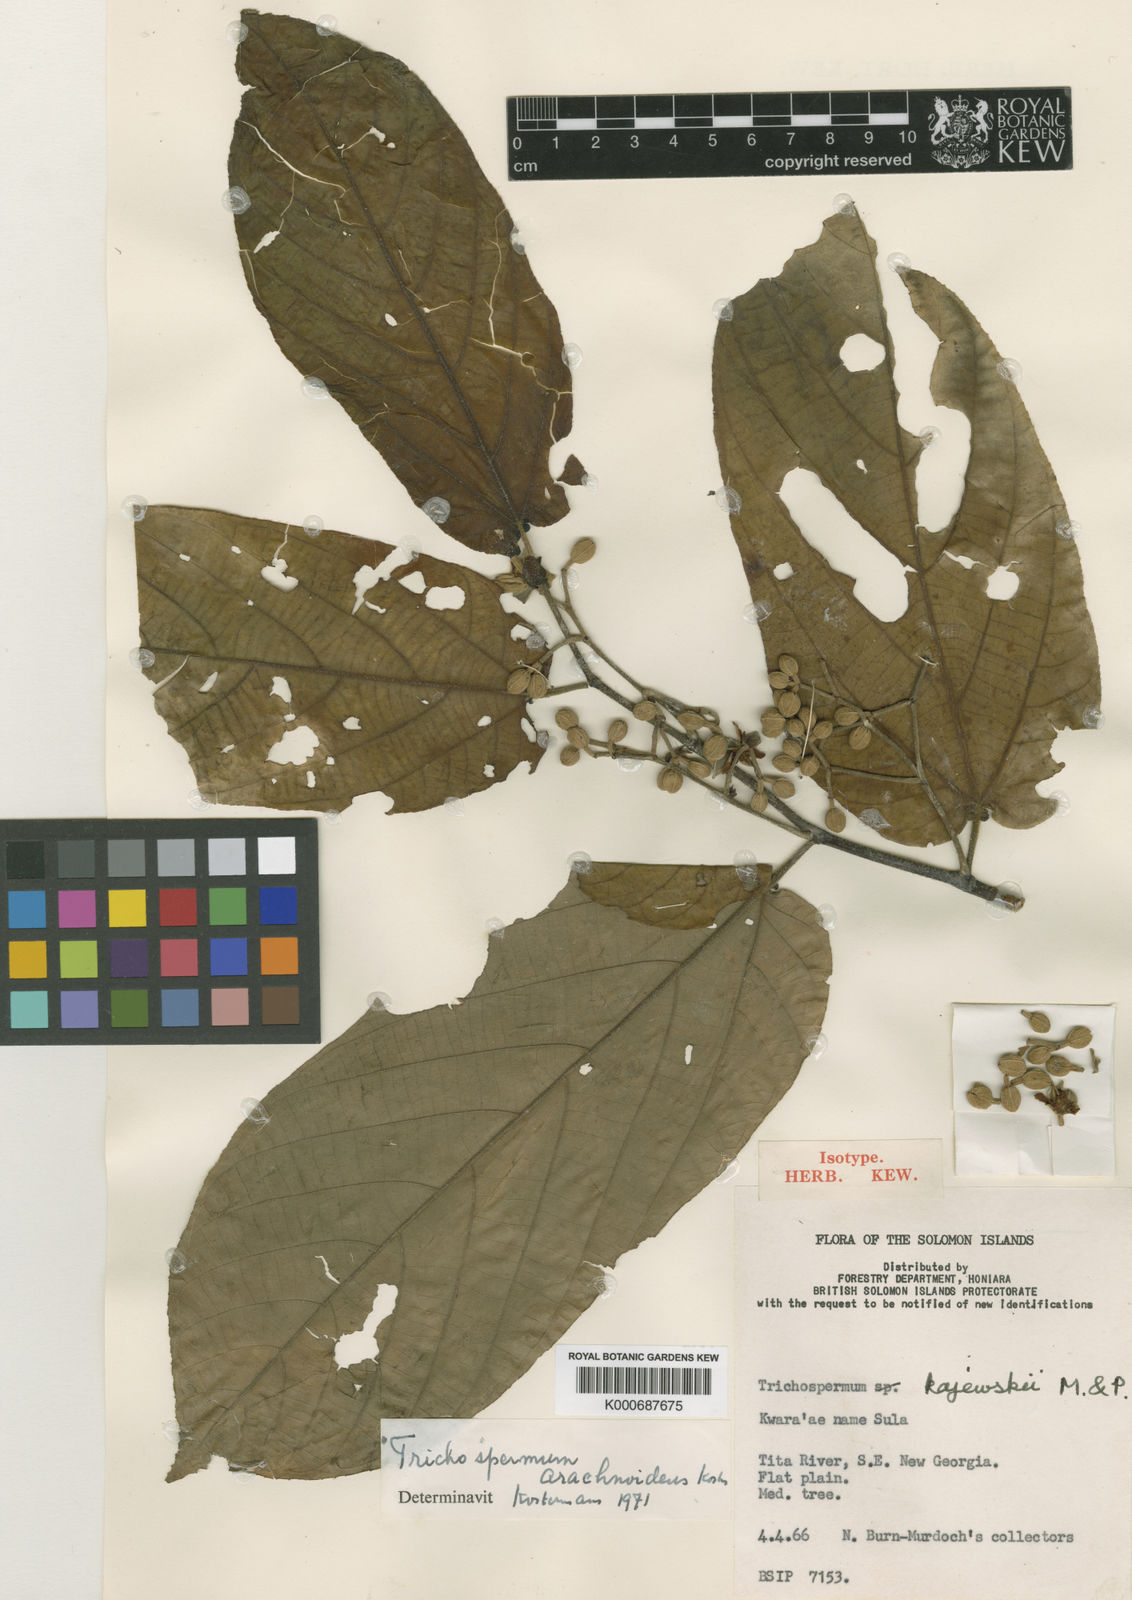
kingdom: Plantae
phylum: Tracheophyta
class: Magnoliopsida
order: Malvales
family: Malvaceae
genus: Trichospermum
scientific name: Trichospermum arachnoideum
